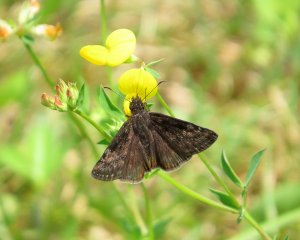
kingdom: Animalia
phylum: Arthropoda
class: Insecta
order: Lepidoptera
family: Hesperiidae
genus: Gesta
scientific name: Gesta
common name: Wild Indigo Duskywing
